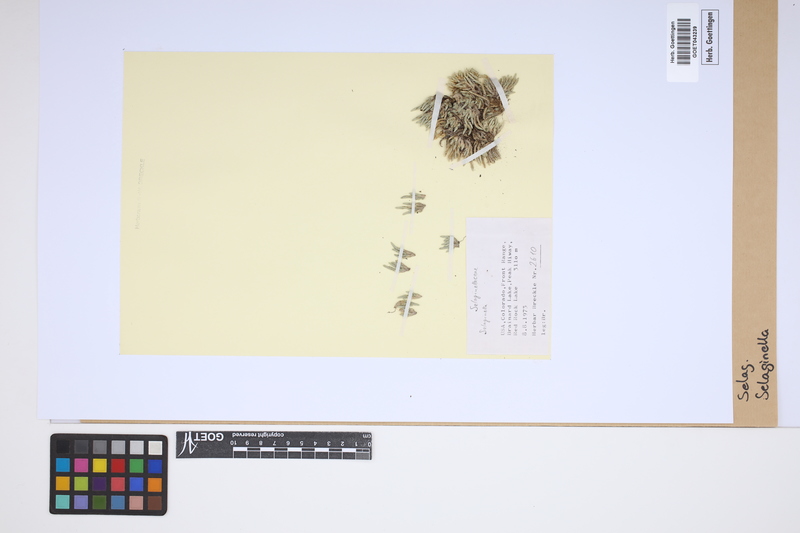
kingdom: Plantae
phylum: Tracheophyta
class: Lycopodiopsida
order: Selaginellales
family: Selaginellaceae
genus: Selaginella
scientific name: Selaginella
